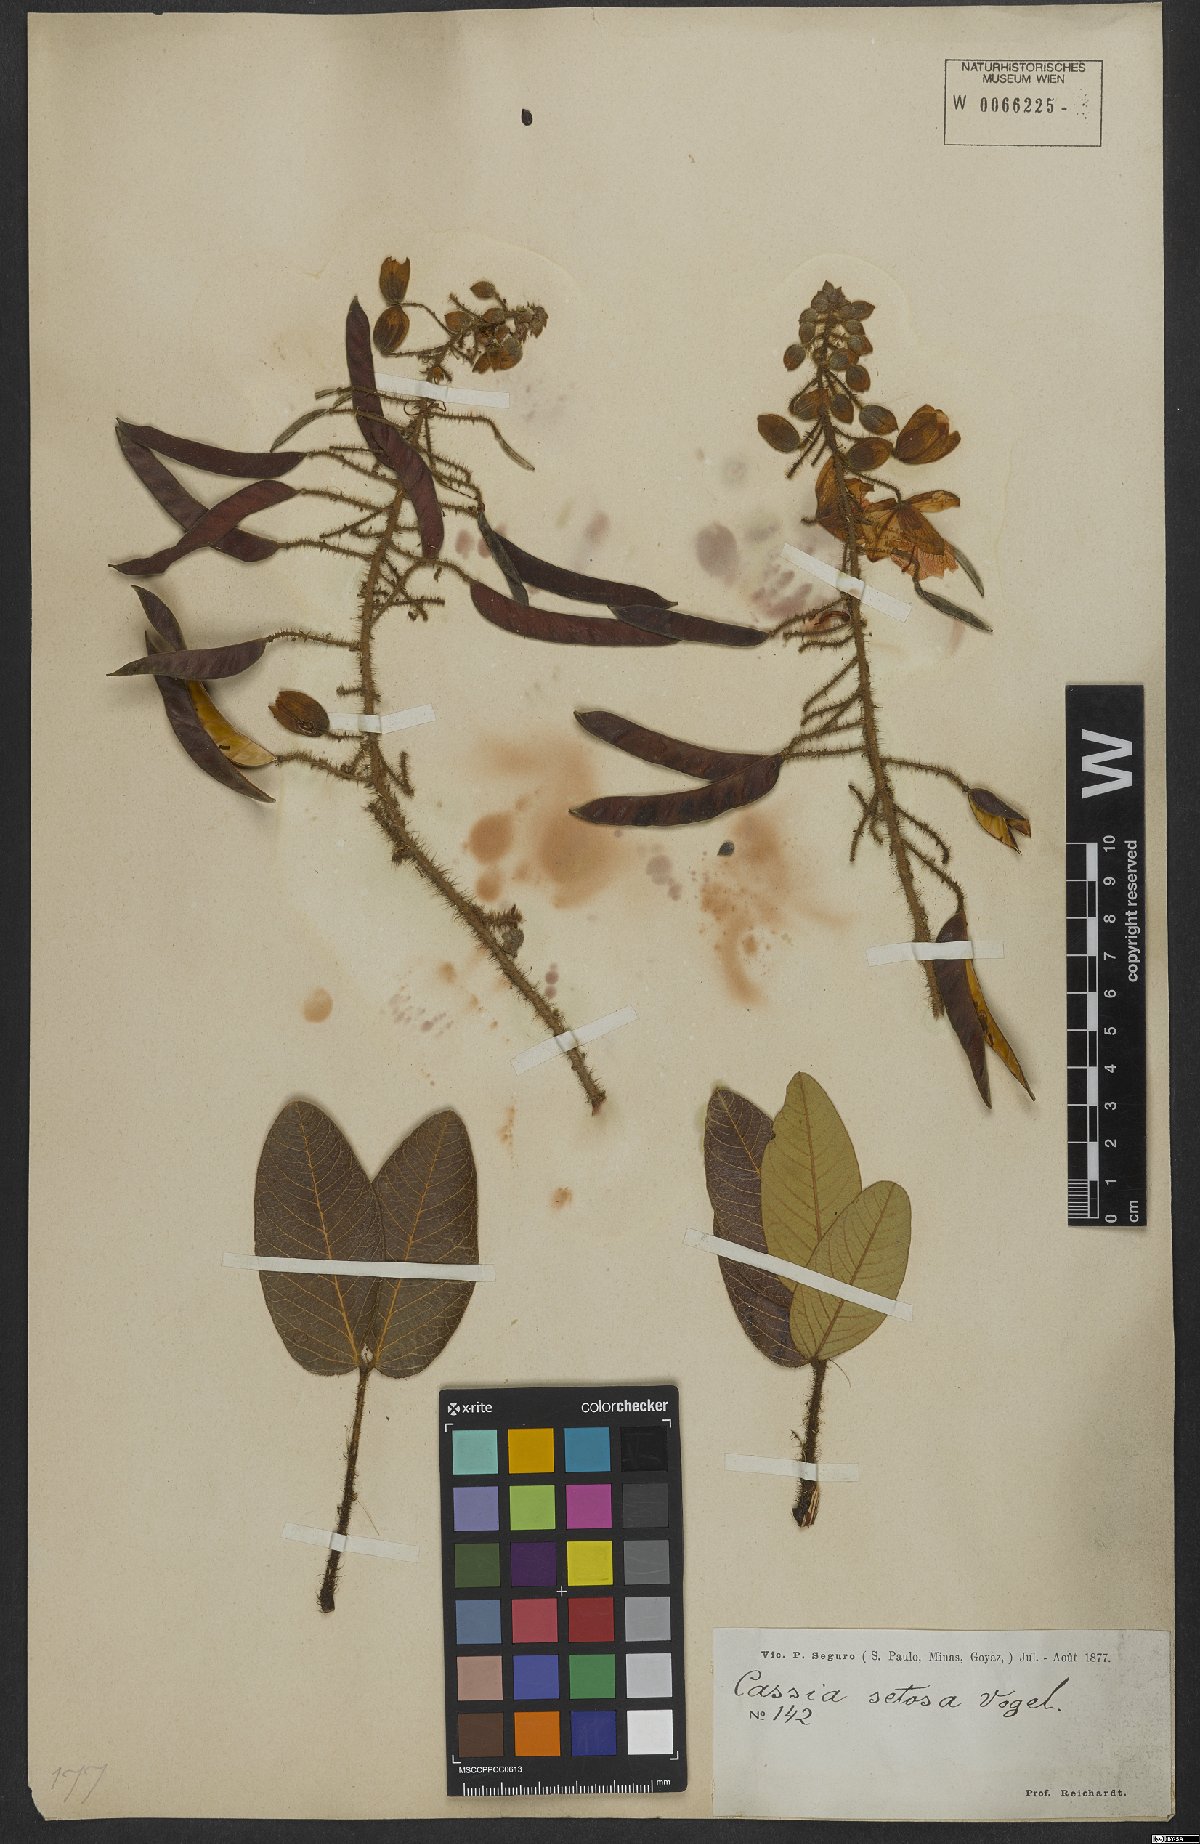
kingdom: Plantae
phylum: Tracheophyta
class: Magnoliopsida
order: Fabales
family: Fabaceae
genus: Chamaecrista
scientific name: Chamaecrista setosa
